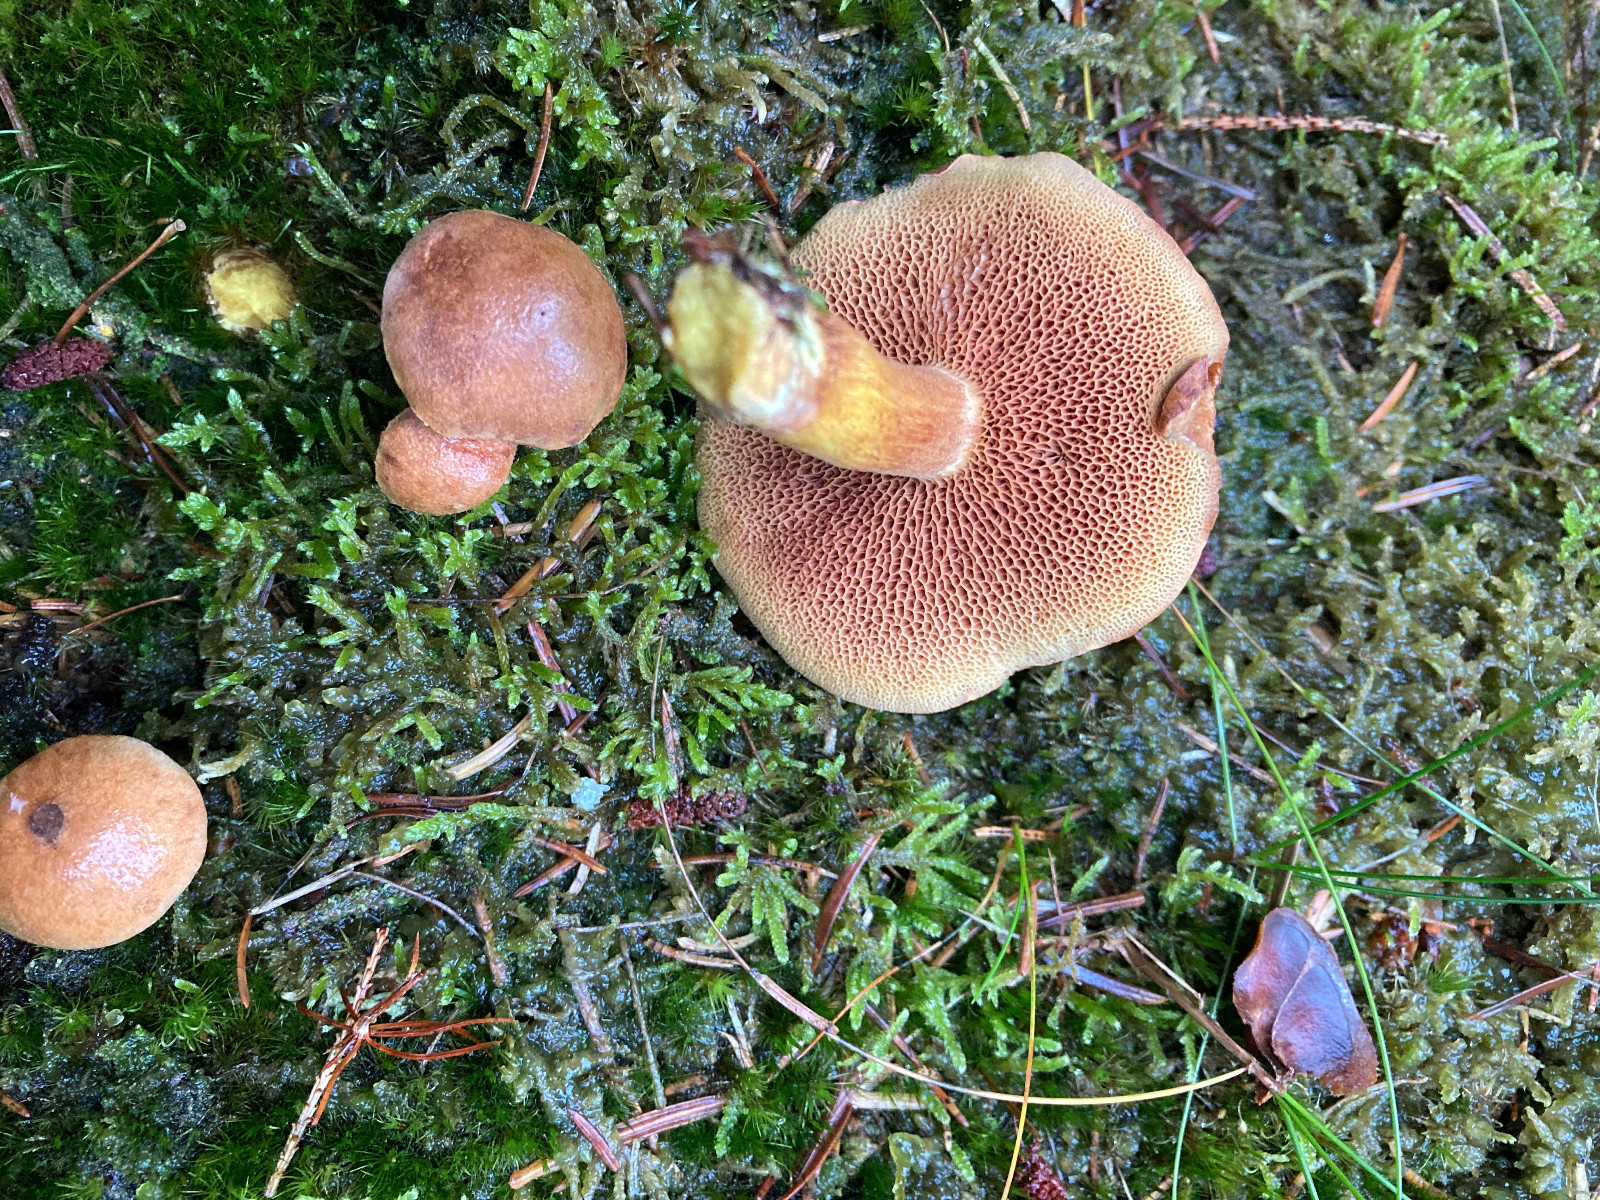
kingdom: Fungi
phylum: Basidiomycota
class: Agaricomycetes
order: Boletales
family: Boletaceae
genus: Chalciporus
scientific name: Chalciporus piperatus
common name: peberrørhat
